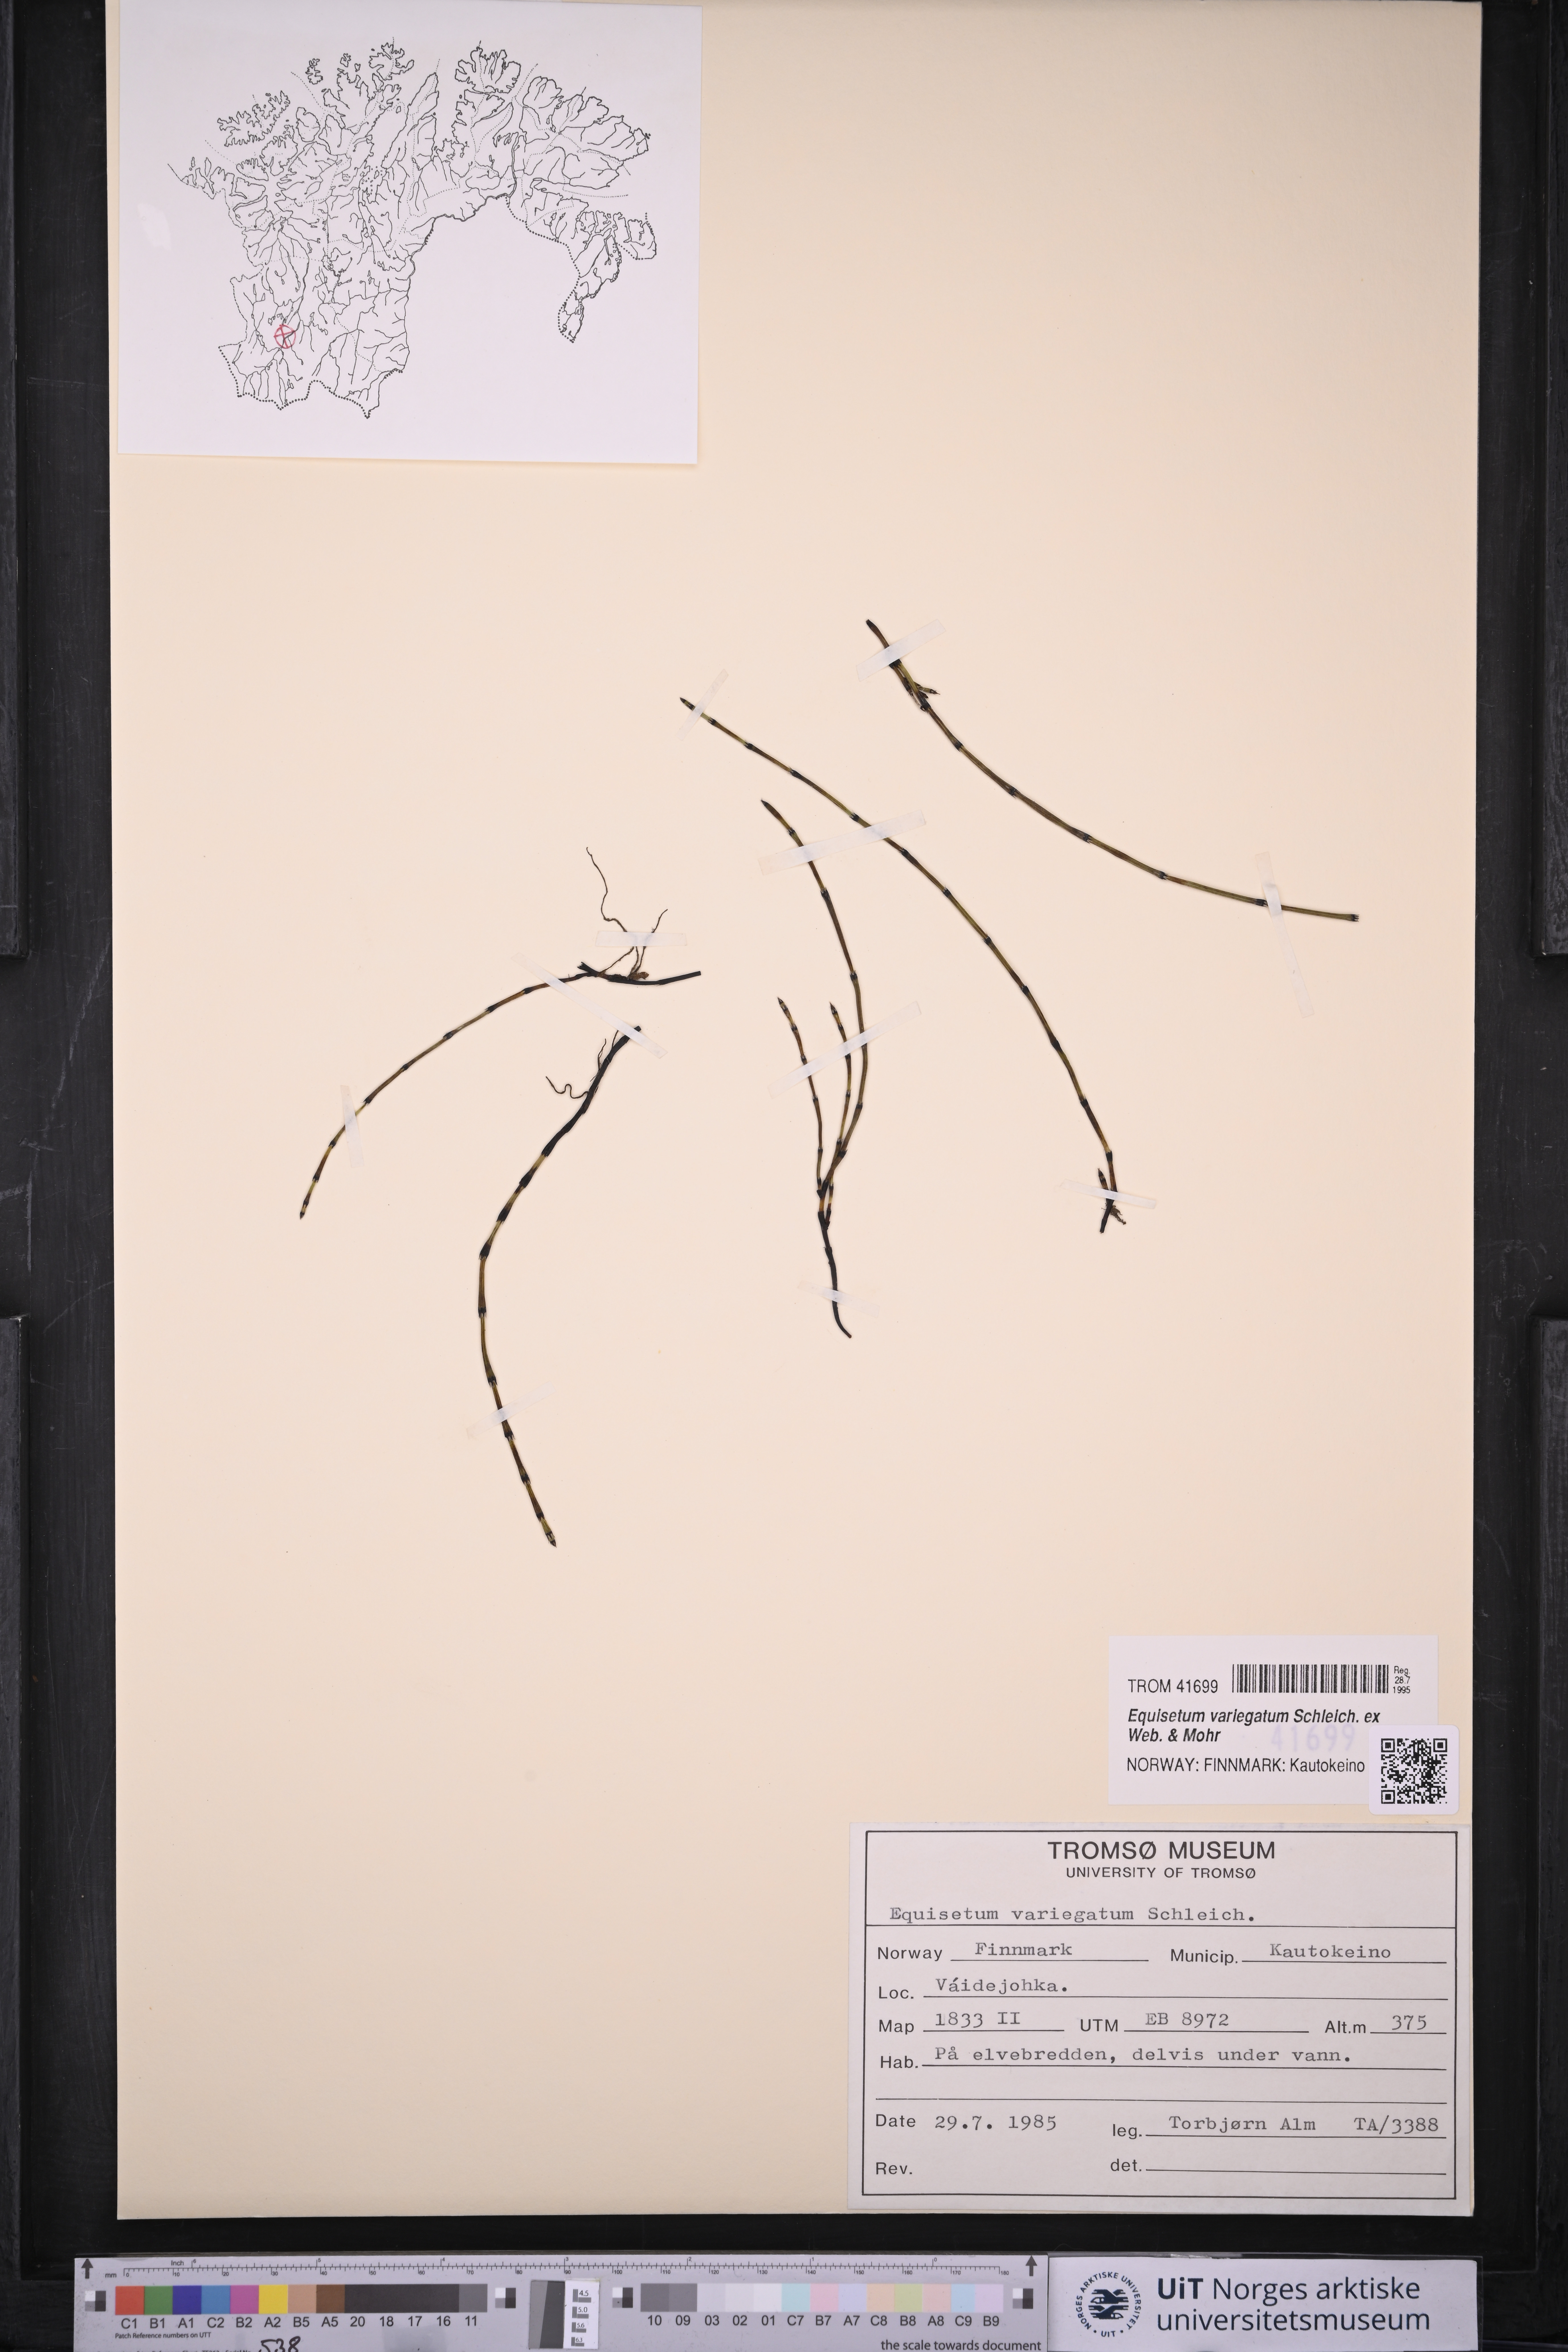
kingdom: Plantae
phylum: Tracheophyta
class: Polypodiopsida
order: Equisetales
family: Equisetaceae
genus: Equisetum
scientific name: Equisetum variegatum
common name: Variegated horsetail
